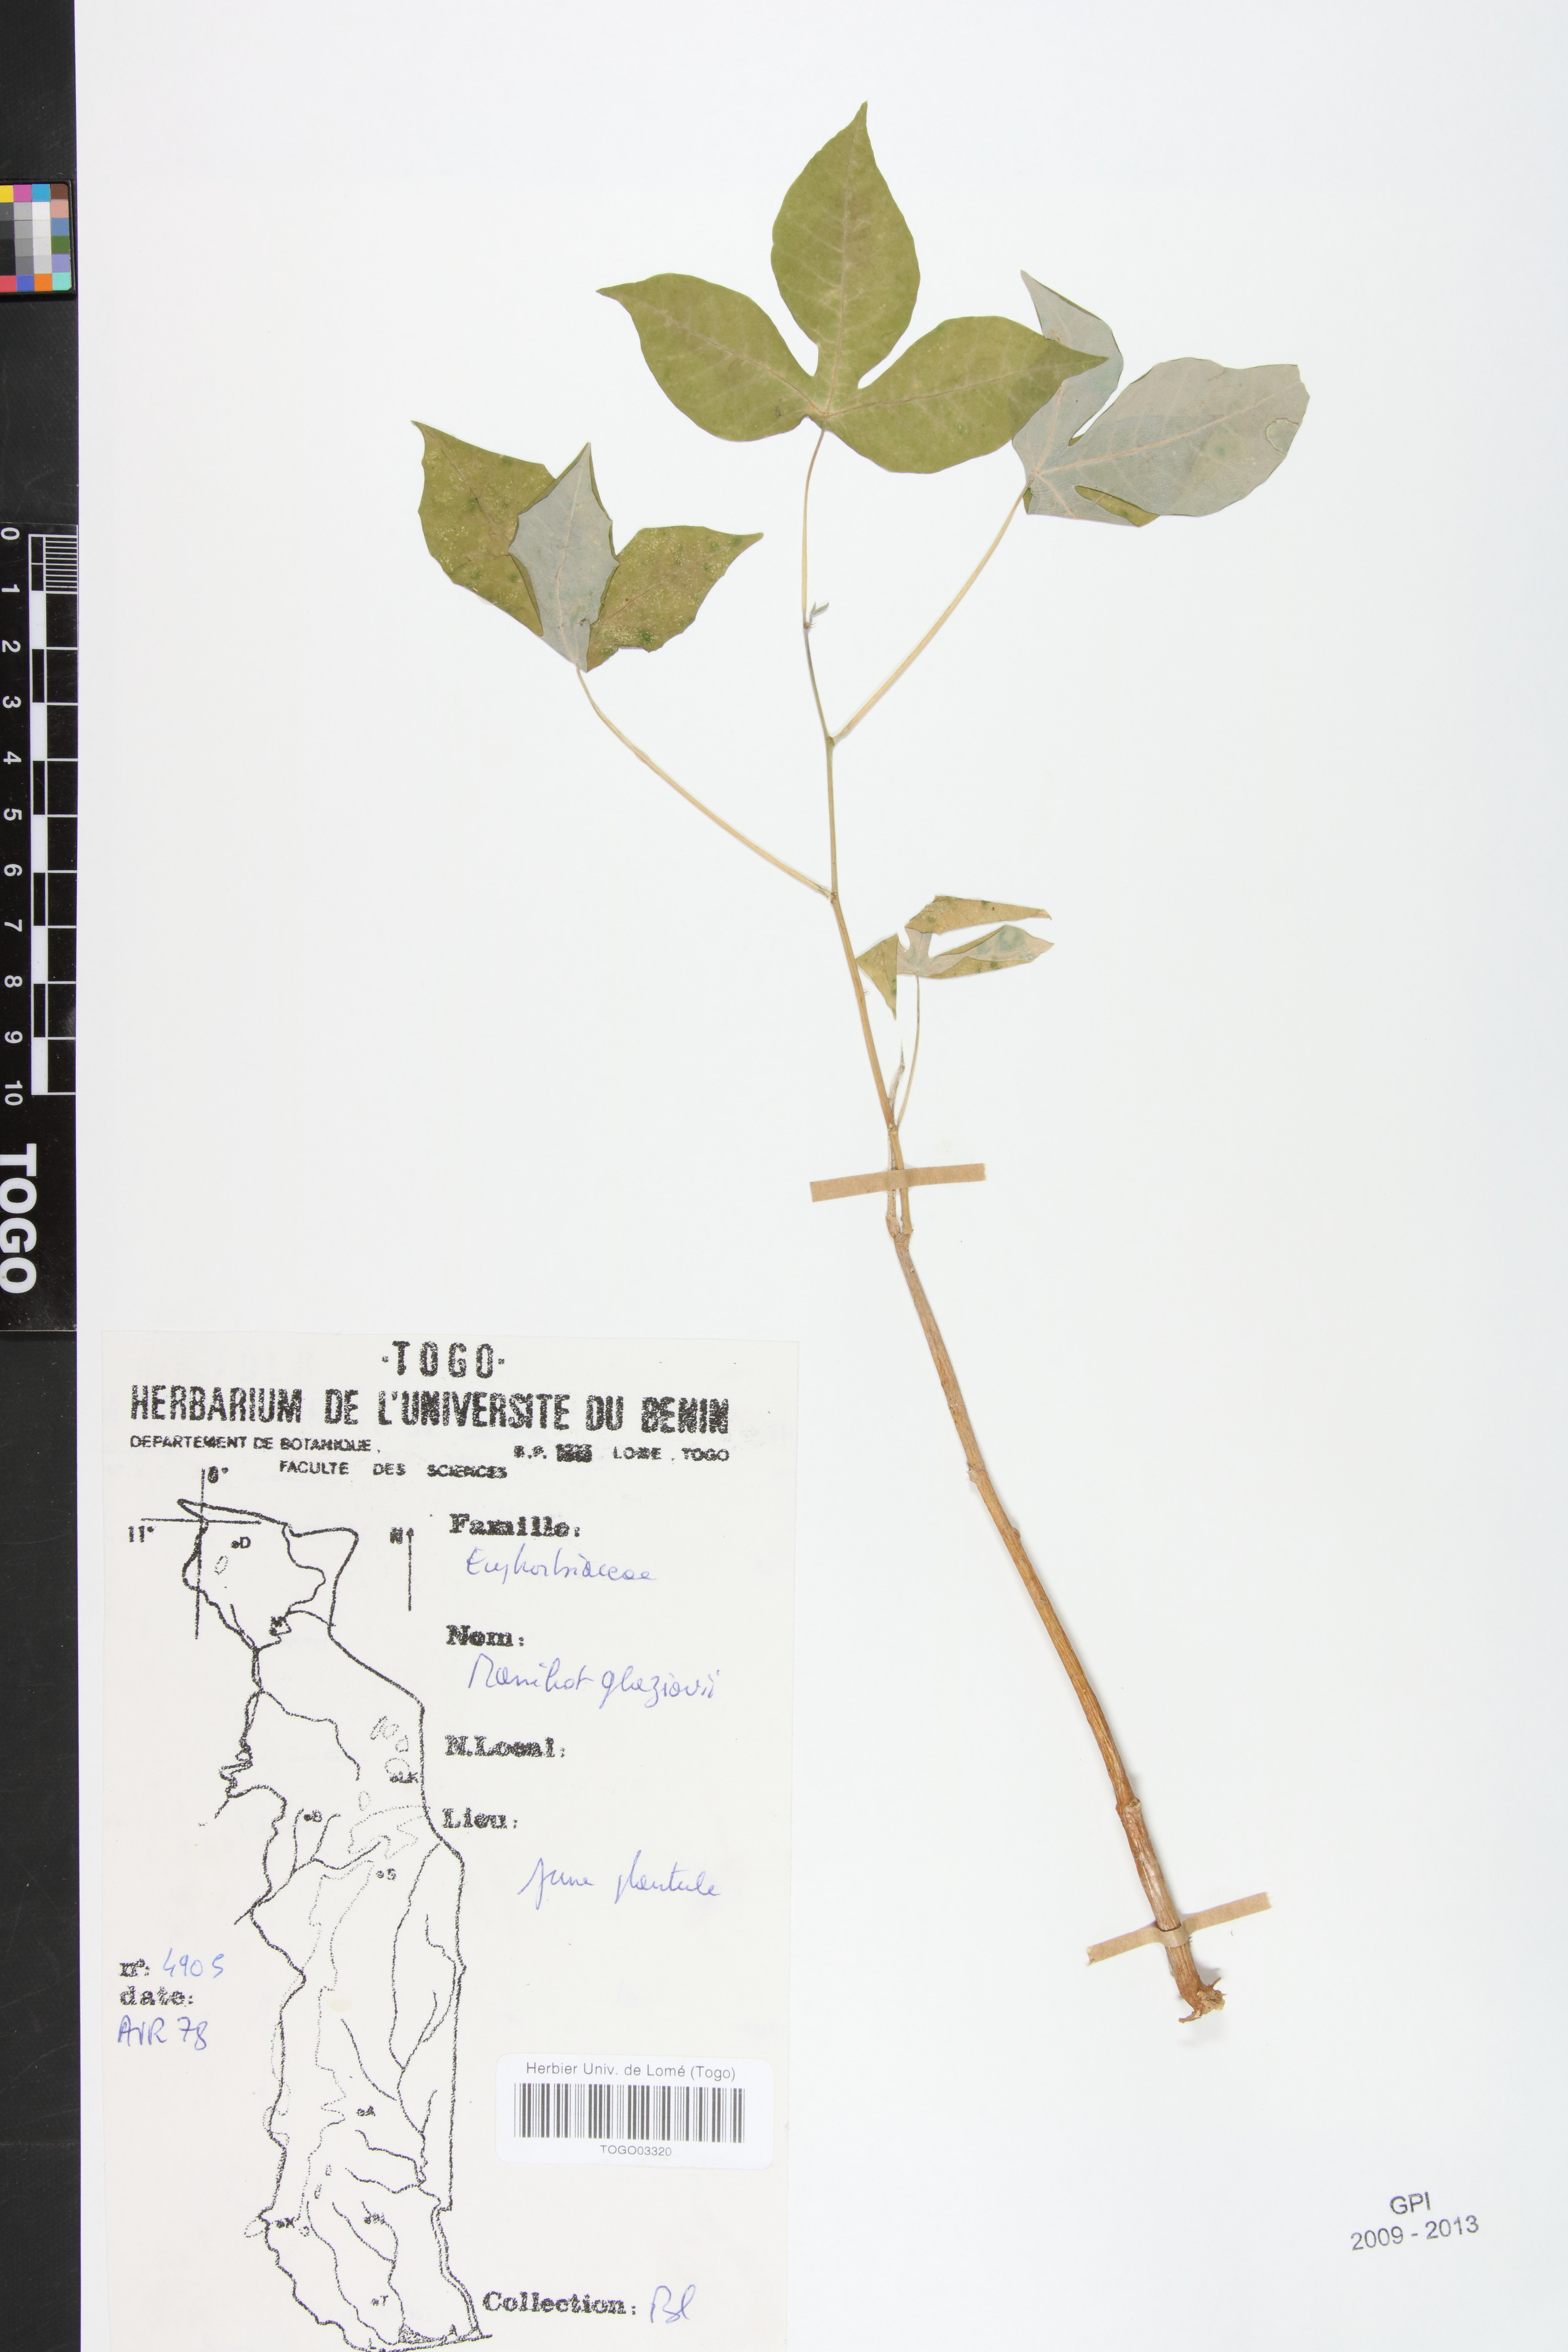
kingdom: Plantae
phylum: Tracheophyta
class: Magnoliopsida
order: Malpighiales
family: Euphorbiaceae
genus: Manihot
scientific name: Manihot carthagenensis
